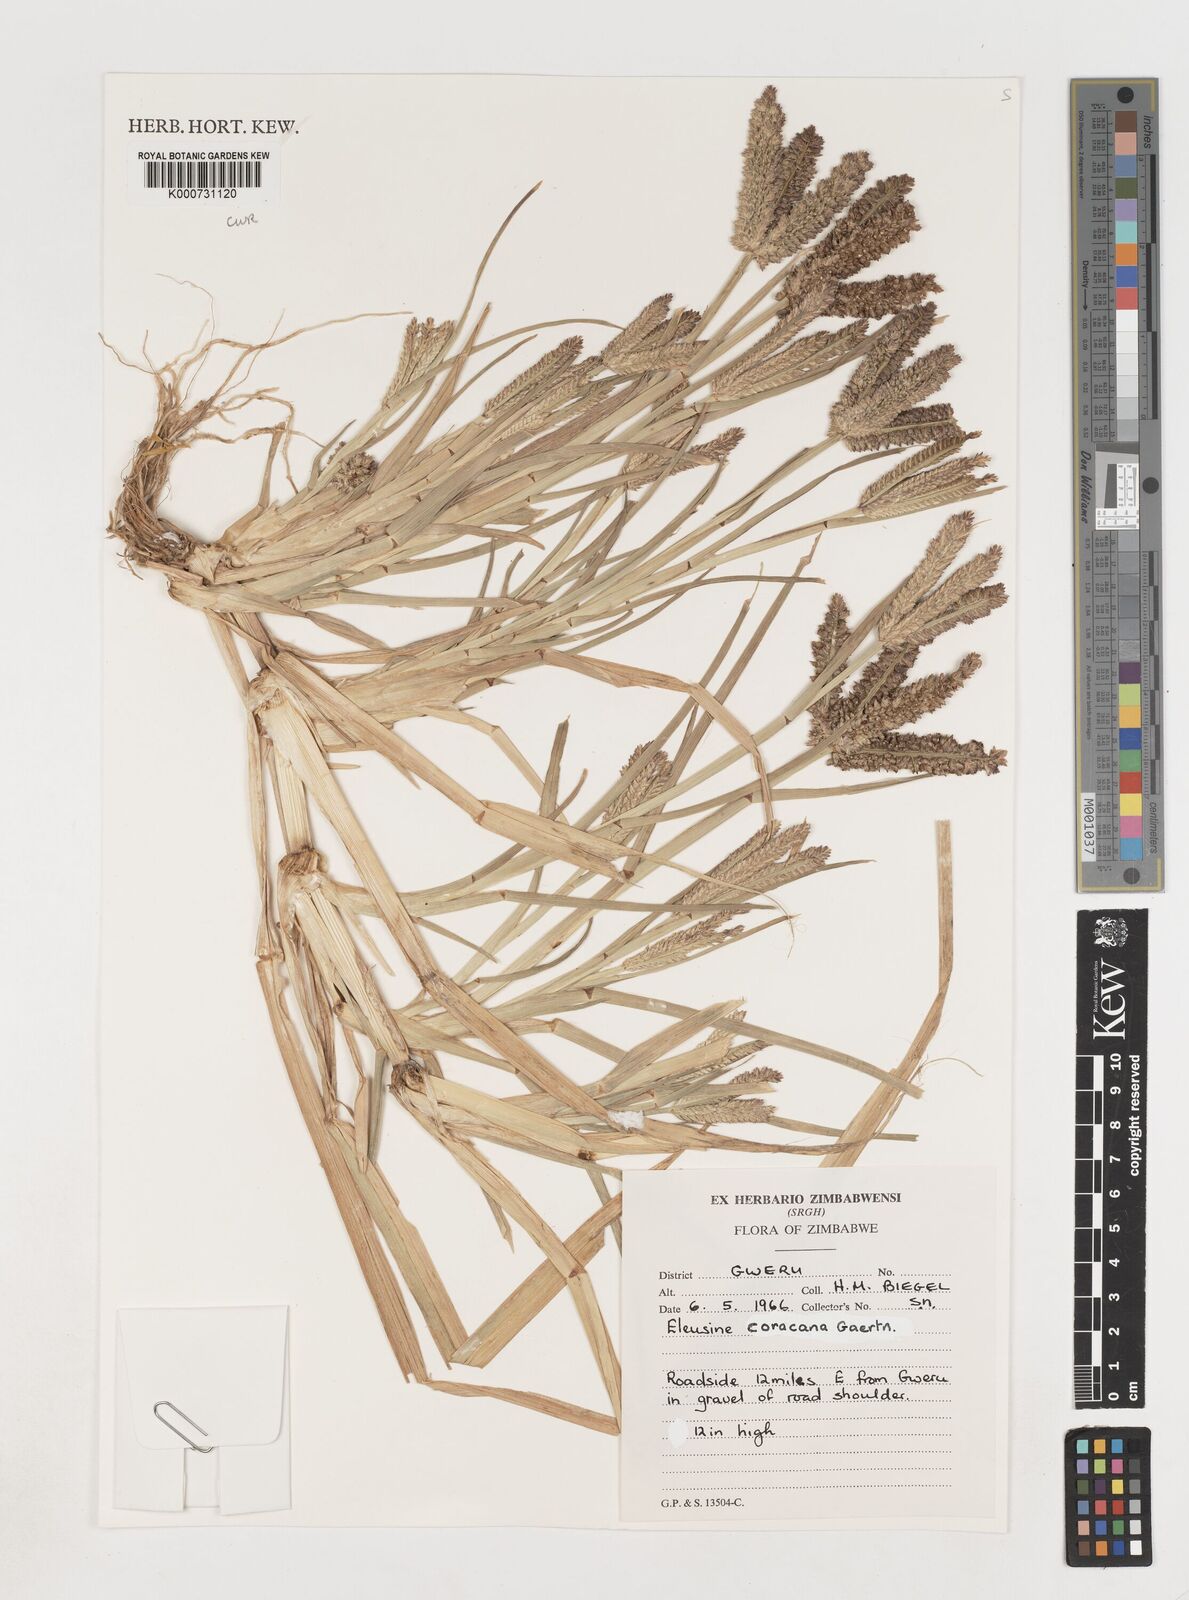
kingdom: Plantae
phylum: Tracheophyta
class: Liliopsida
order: Poales
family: Poaceae
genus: Eleusine
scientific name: Eleusine coracana
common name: Finger millet
